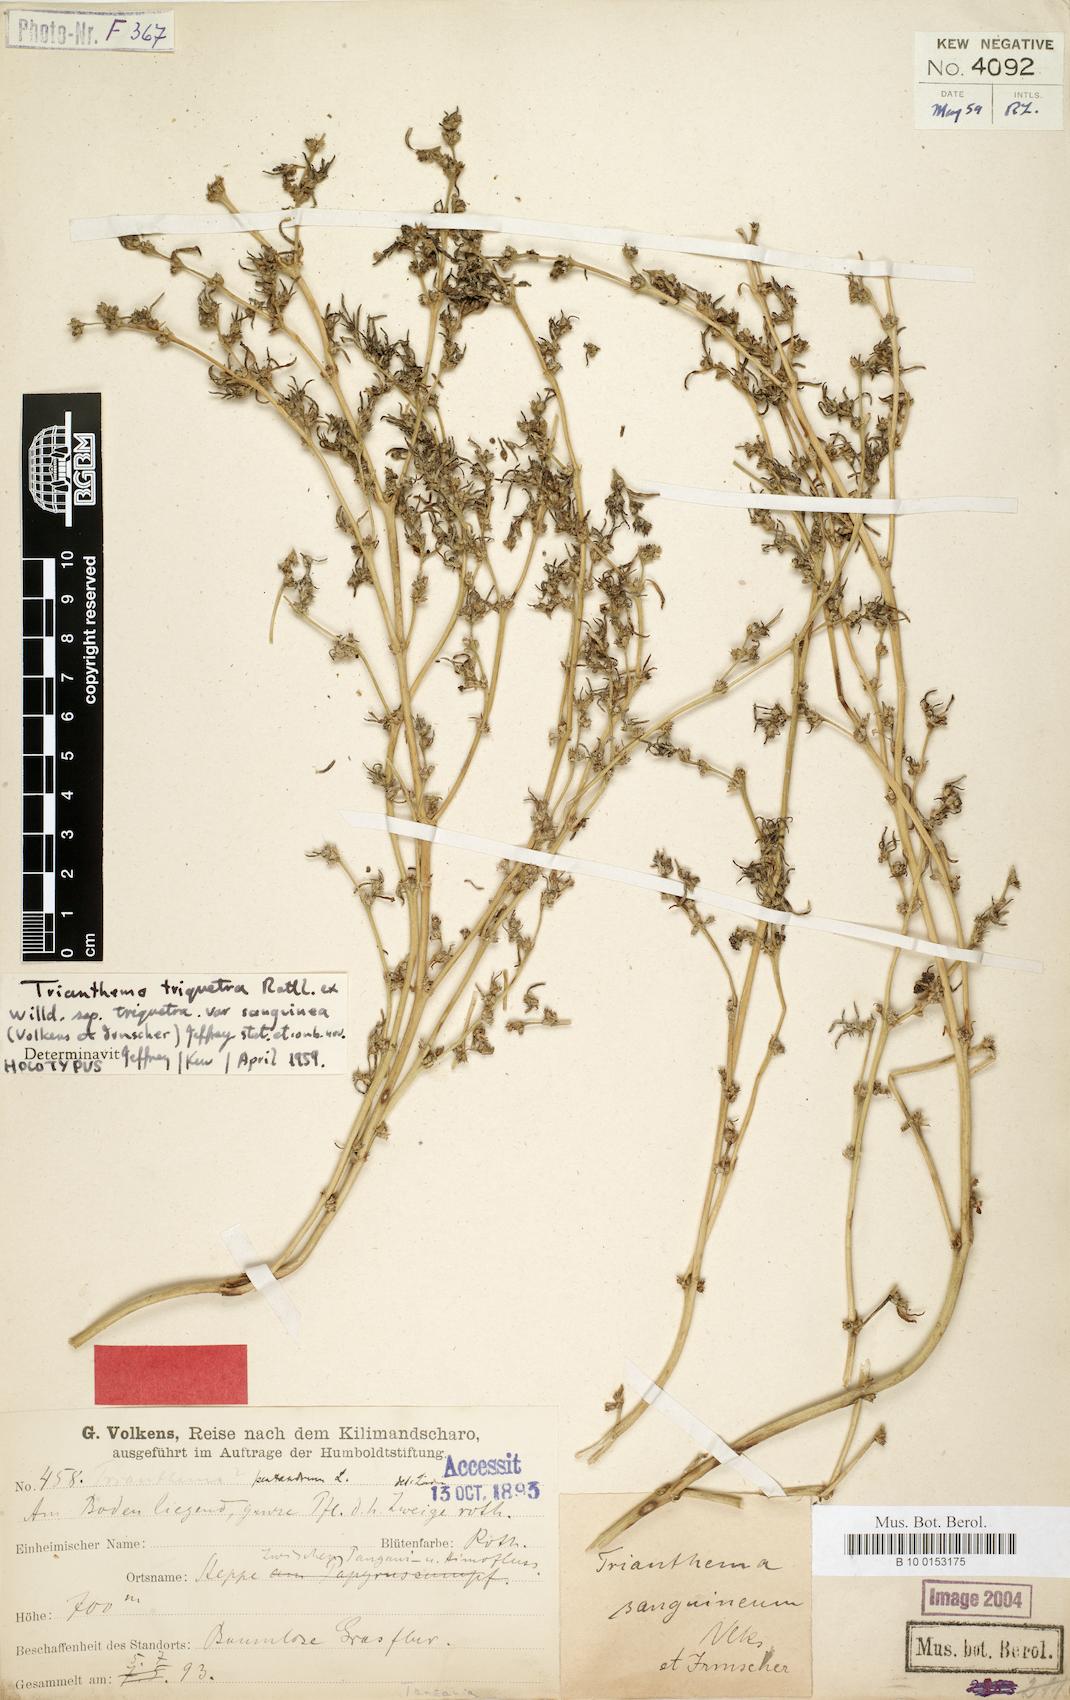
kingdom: Plantae
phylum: Tracheophyta
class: Magnoliopsida
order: Caryophyllales
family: Aizoaceae
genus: Trianthema
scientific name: Trianthema sanguineum
